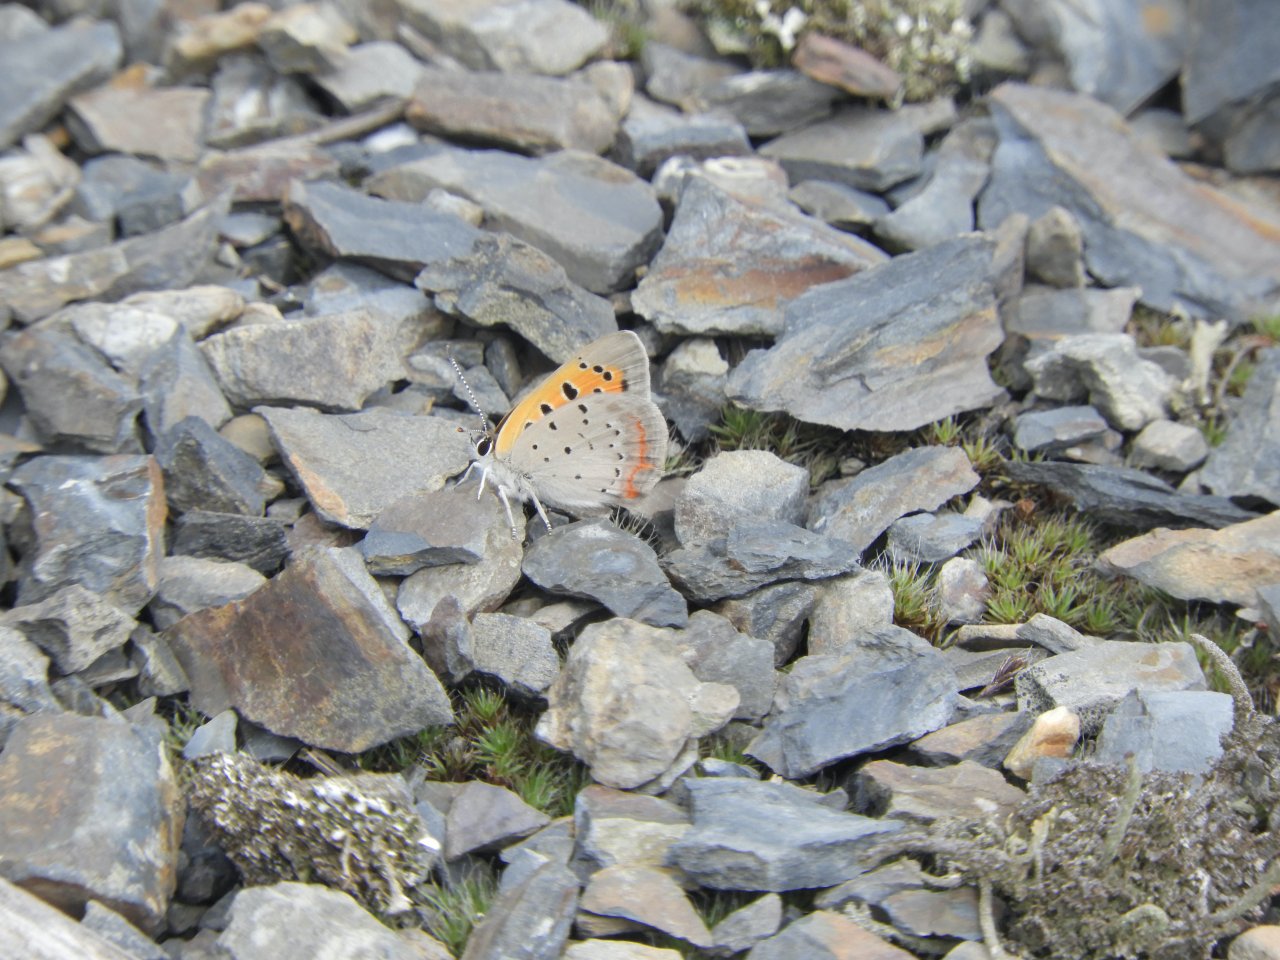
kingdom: Animalia
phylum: Arthropoda
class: Insecta
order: Lepidoptera
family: Lycaenidae
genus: Lycaena
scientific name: Lycaena phlaeas
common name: American Copper
